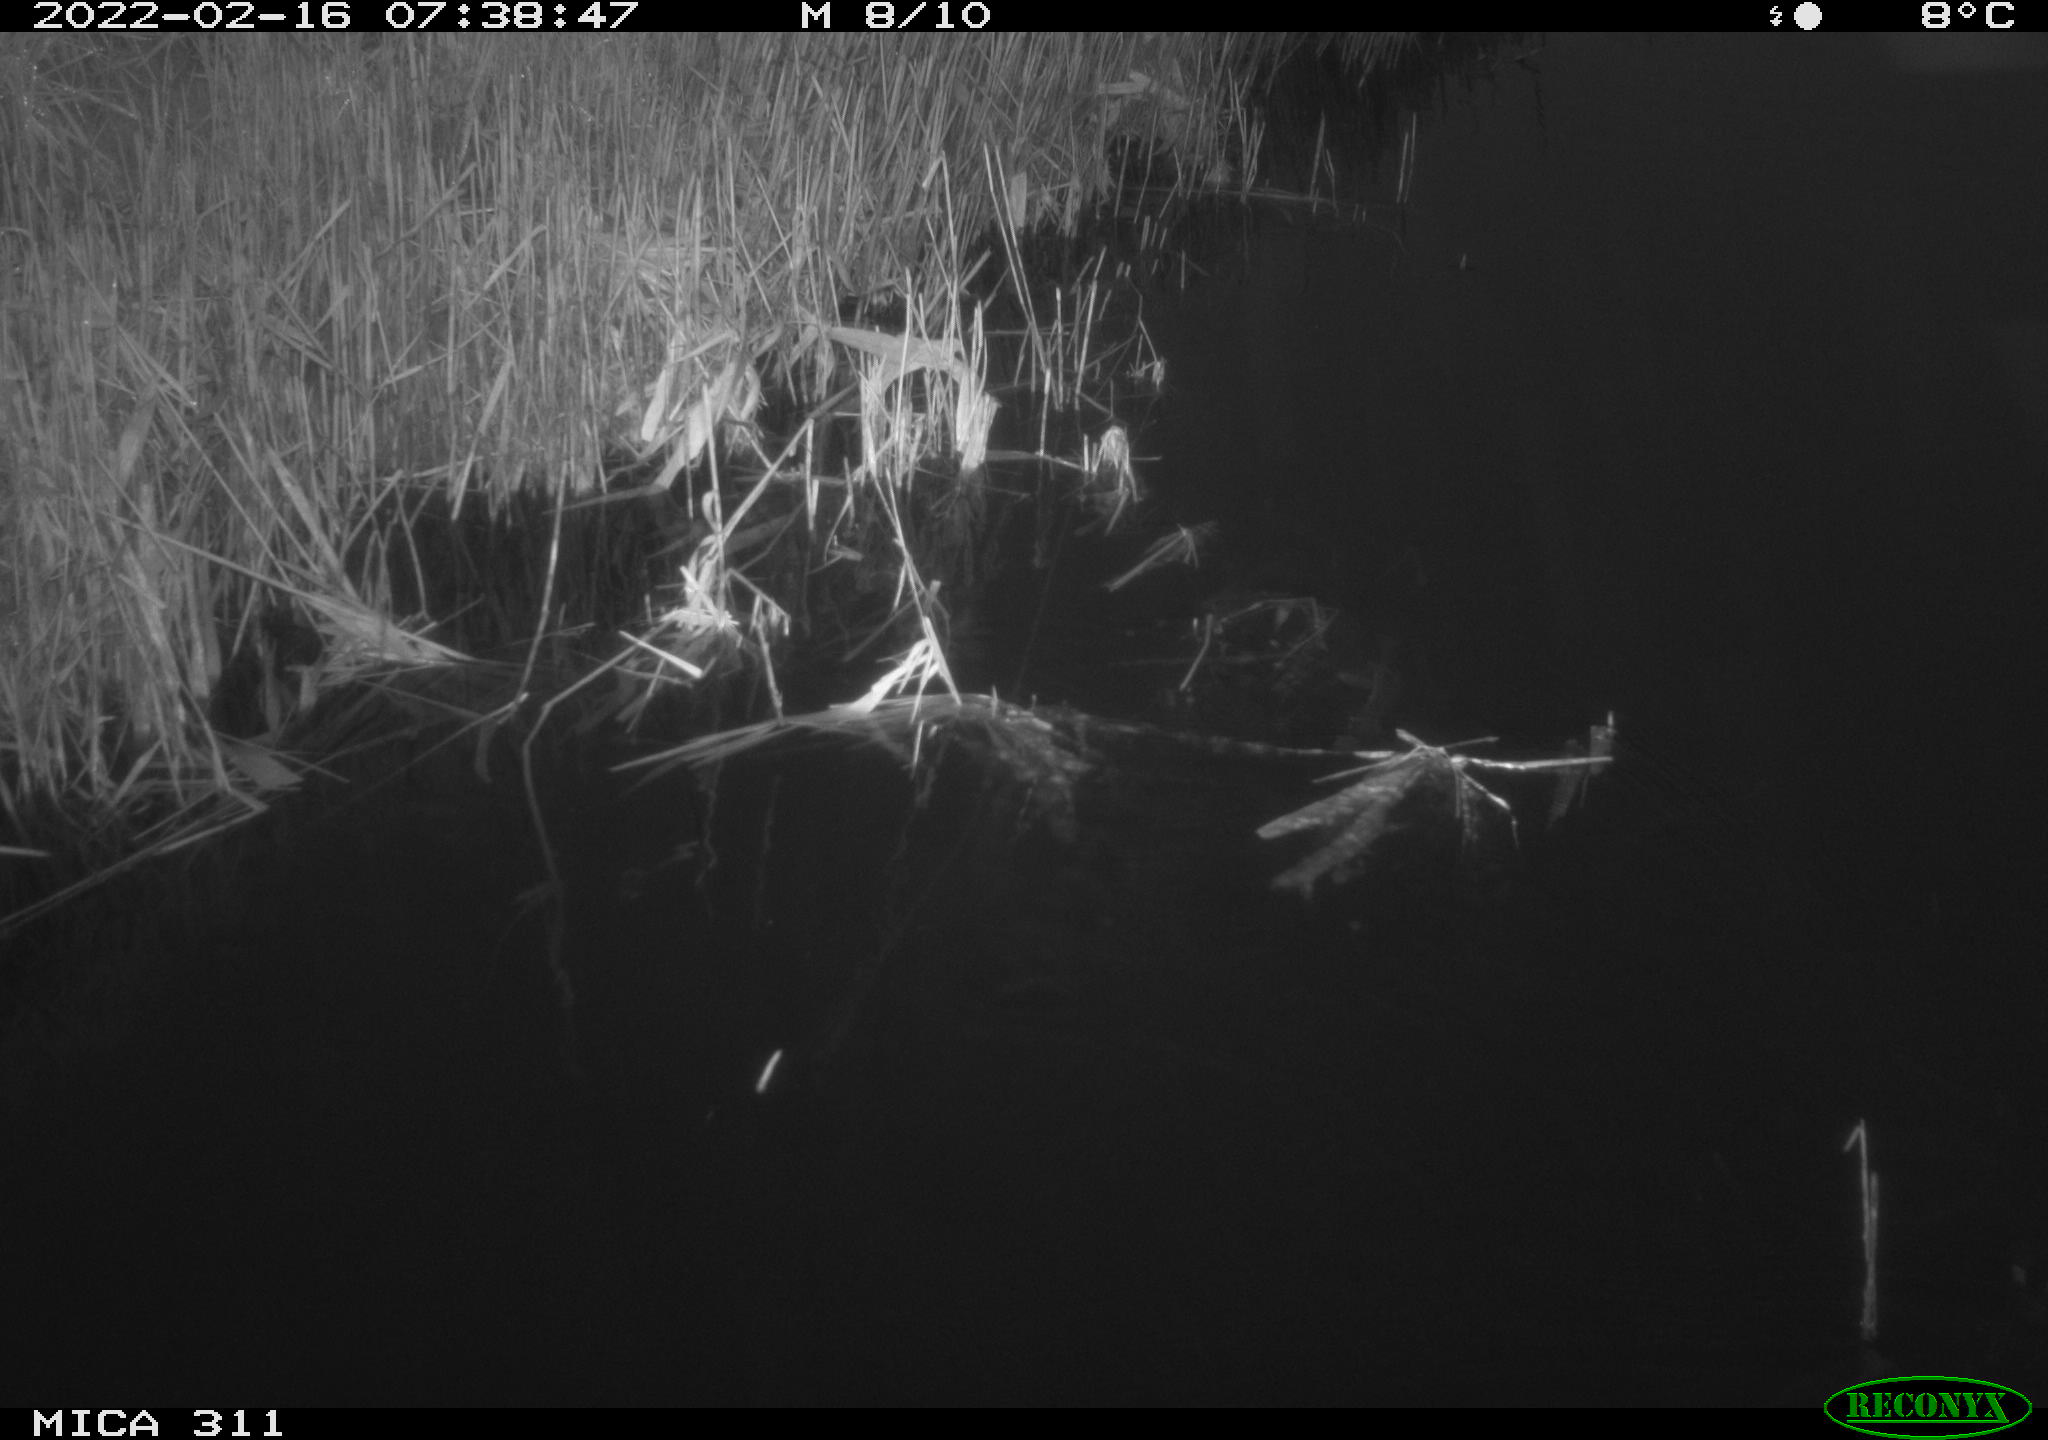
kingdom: Animalia
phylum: Chordata
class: Aves
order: Gruiformes
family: Rallidae
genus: Gallinula
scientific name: Gallinula chloropus
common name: Common moorhen
